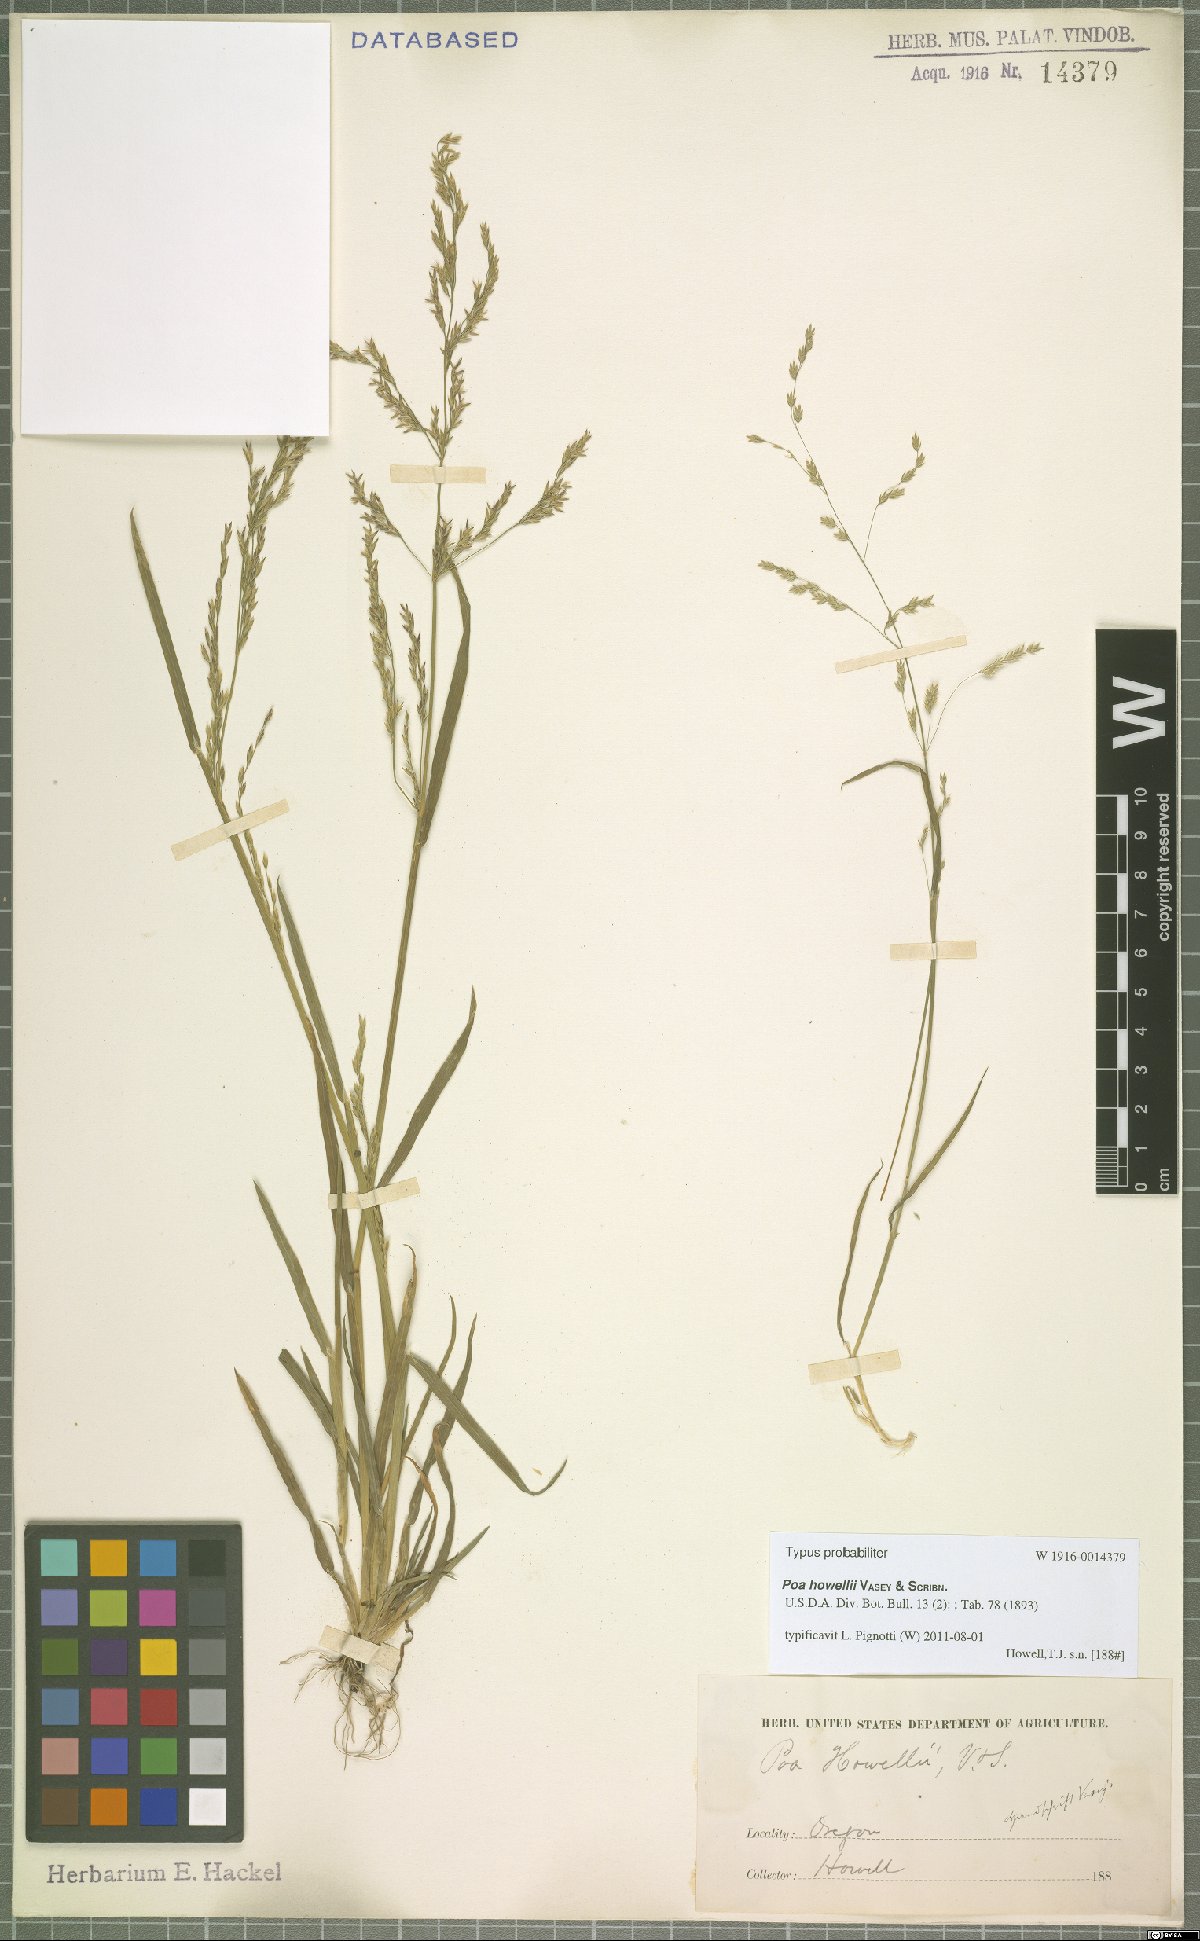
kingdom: Plantae
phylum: Tracheophyta
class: Liliopsida
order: Poales
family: Poaceae
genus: Poa
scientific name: Poa howellii
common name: Howell's bluegrass
